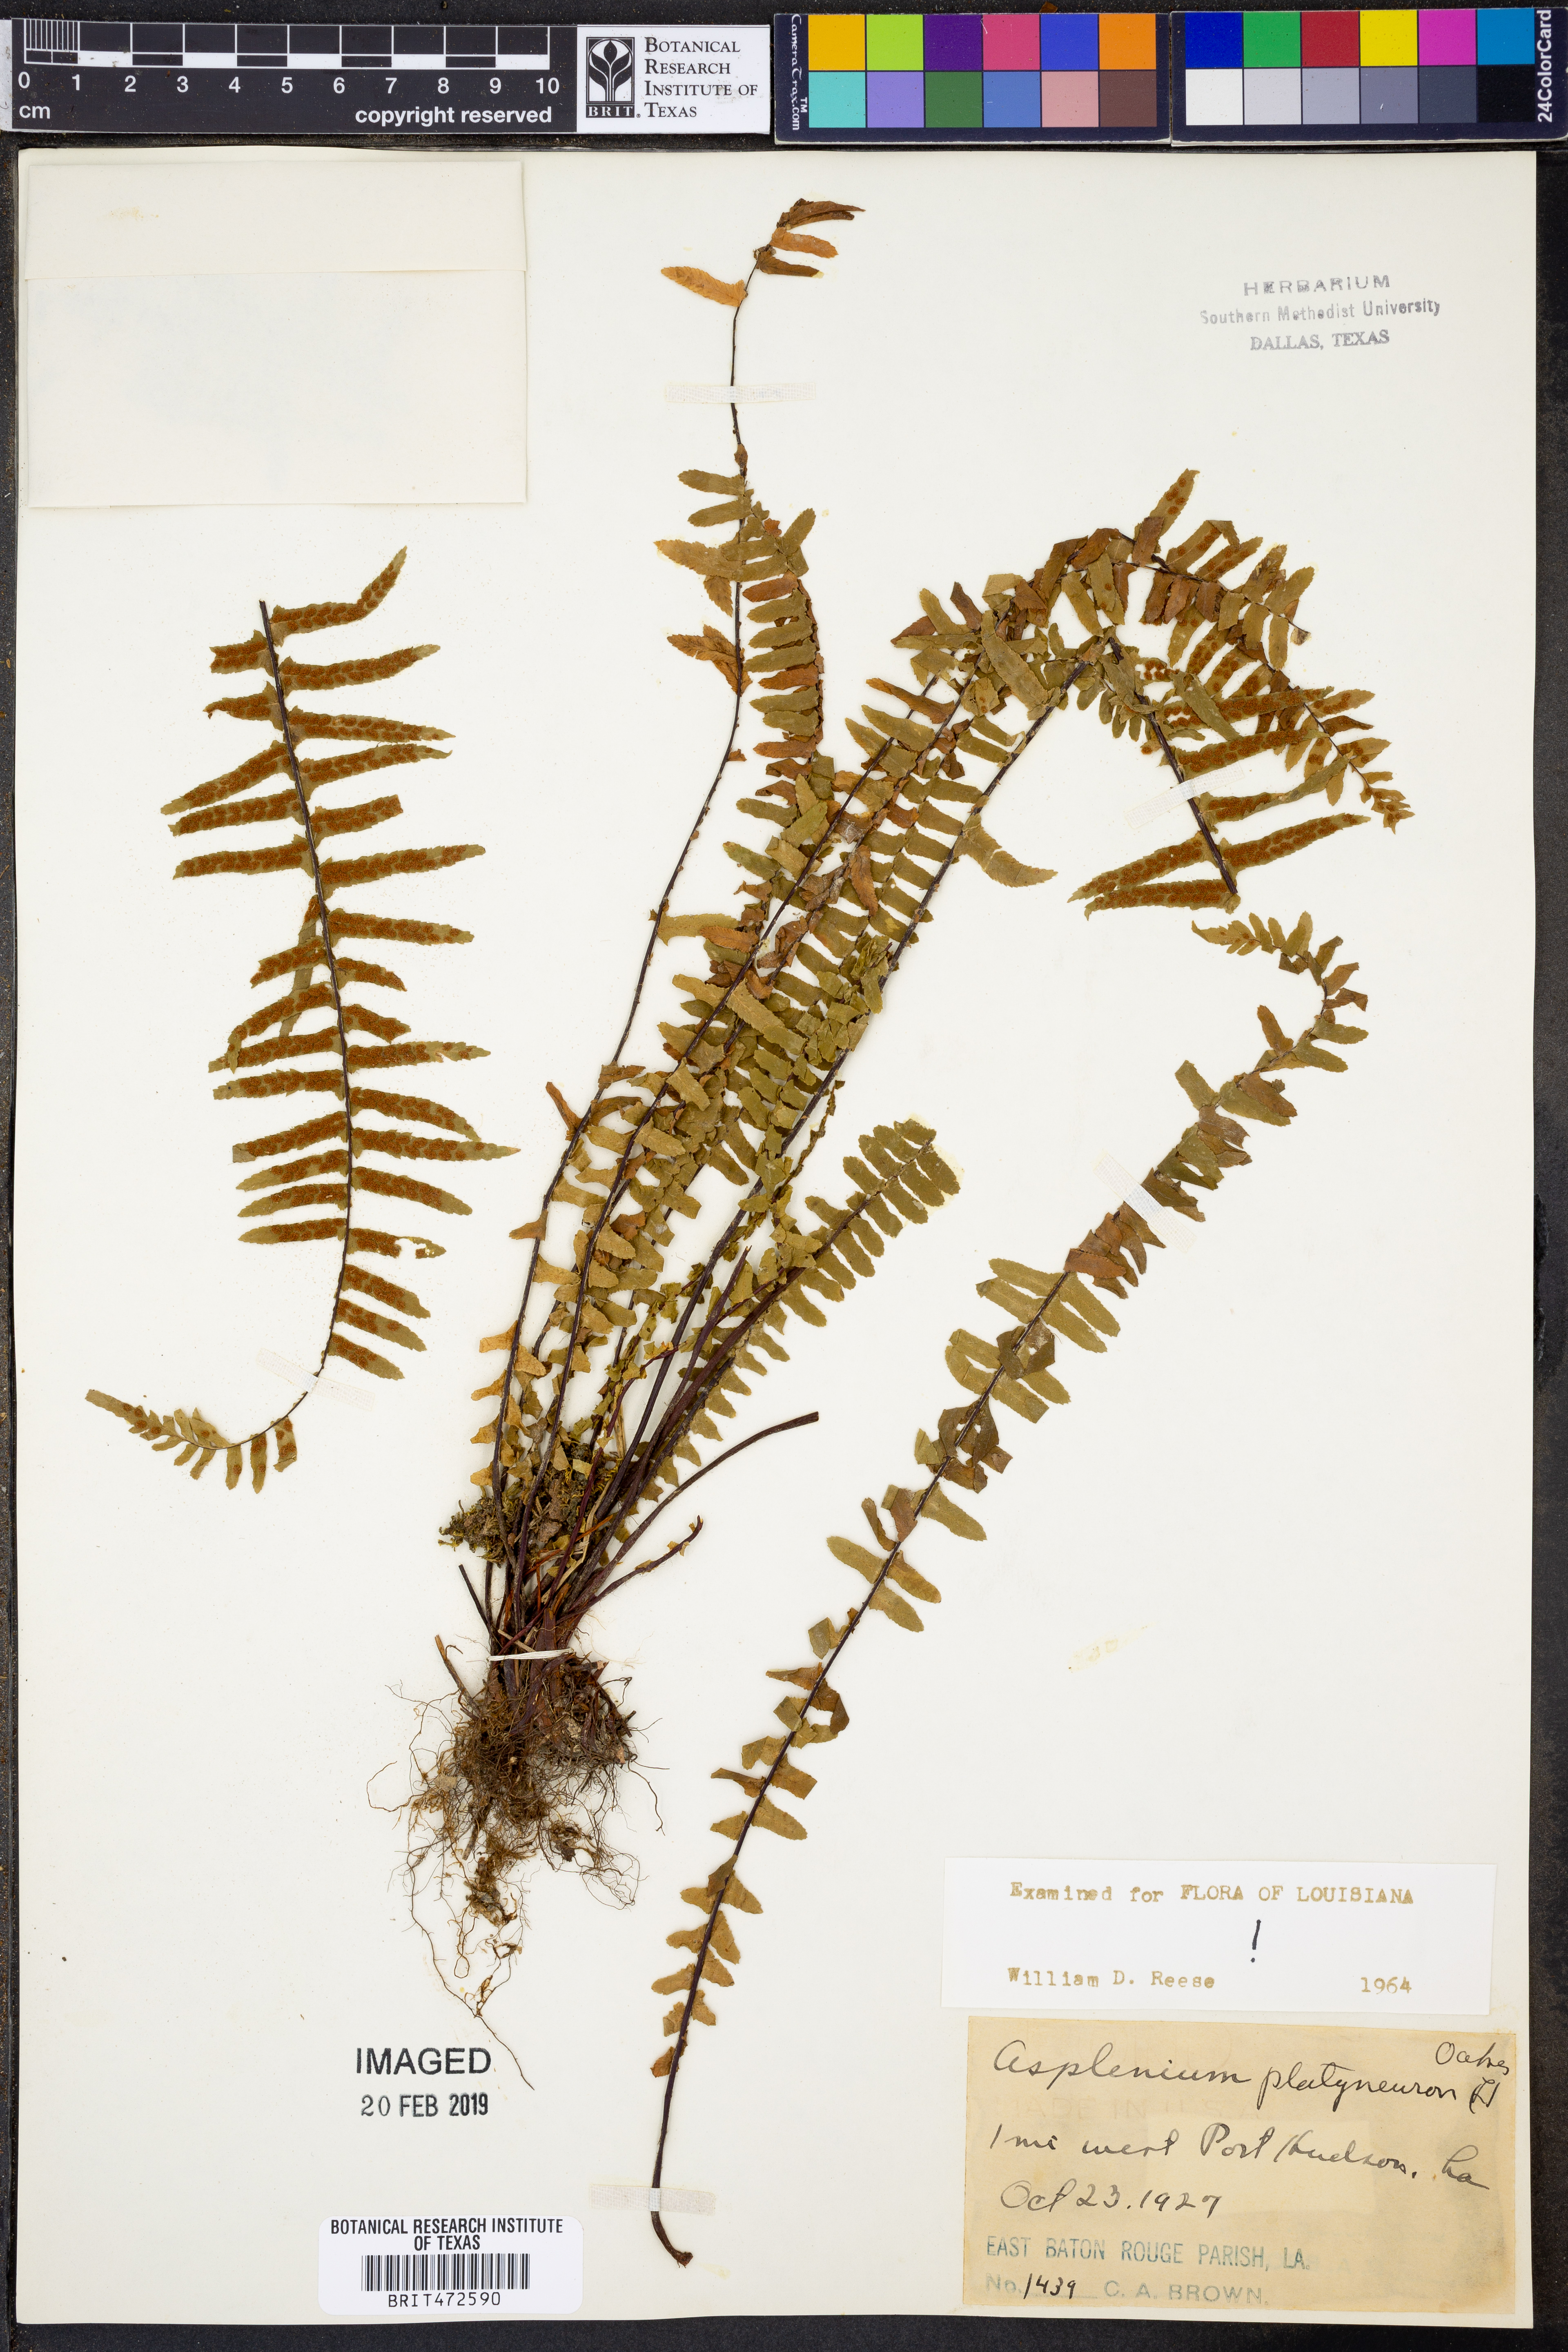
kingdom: Plantae
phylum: Tracheophyta
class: Polypodiopsida
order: Polypodiales
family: Aspleniaceae
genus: Asplenium
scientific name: Asplenium platyneuron
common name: Ebony spleenwort
